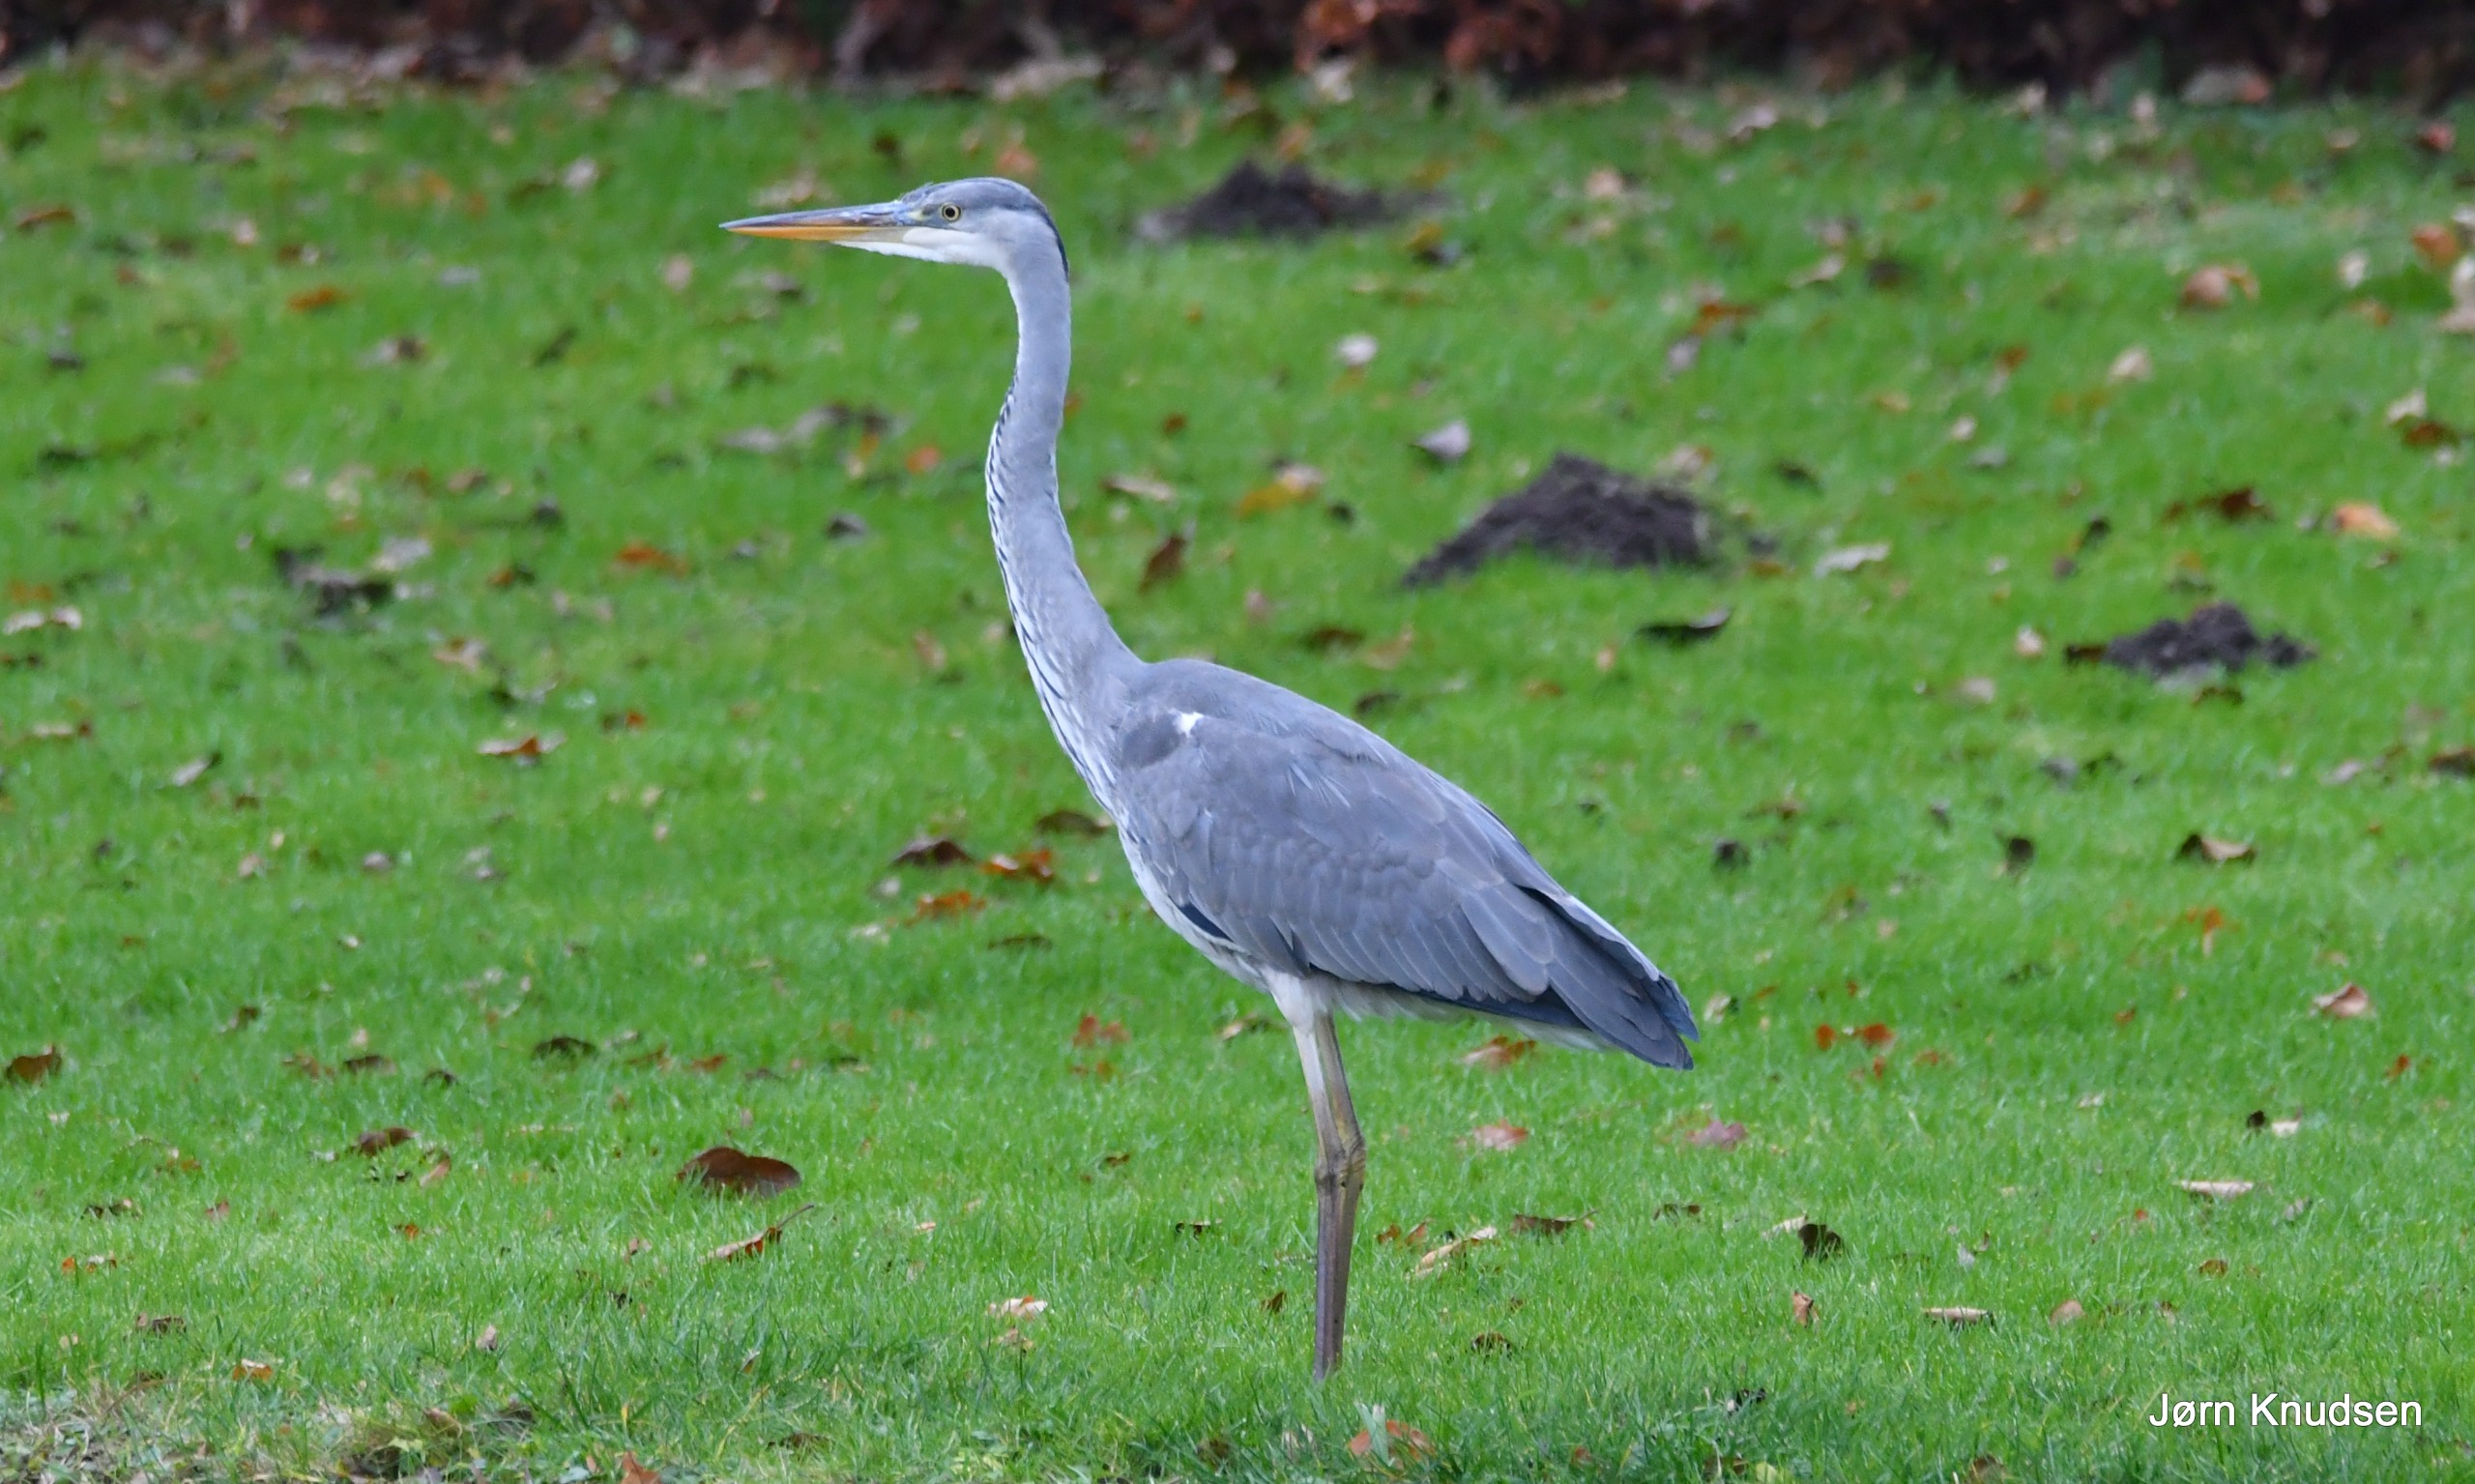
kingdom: Animalia
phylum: Chordata
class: Aves
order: Pelecaniformes
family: Ardeidae
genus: Ardea
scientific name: Ardea cinerea
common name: Fiskehejre
